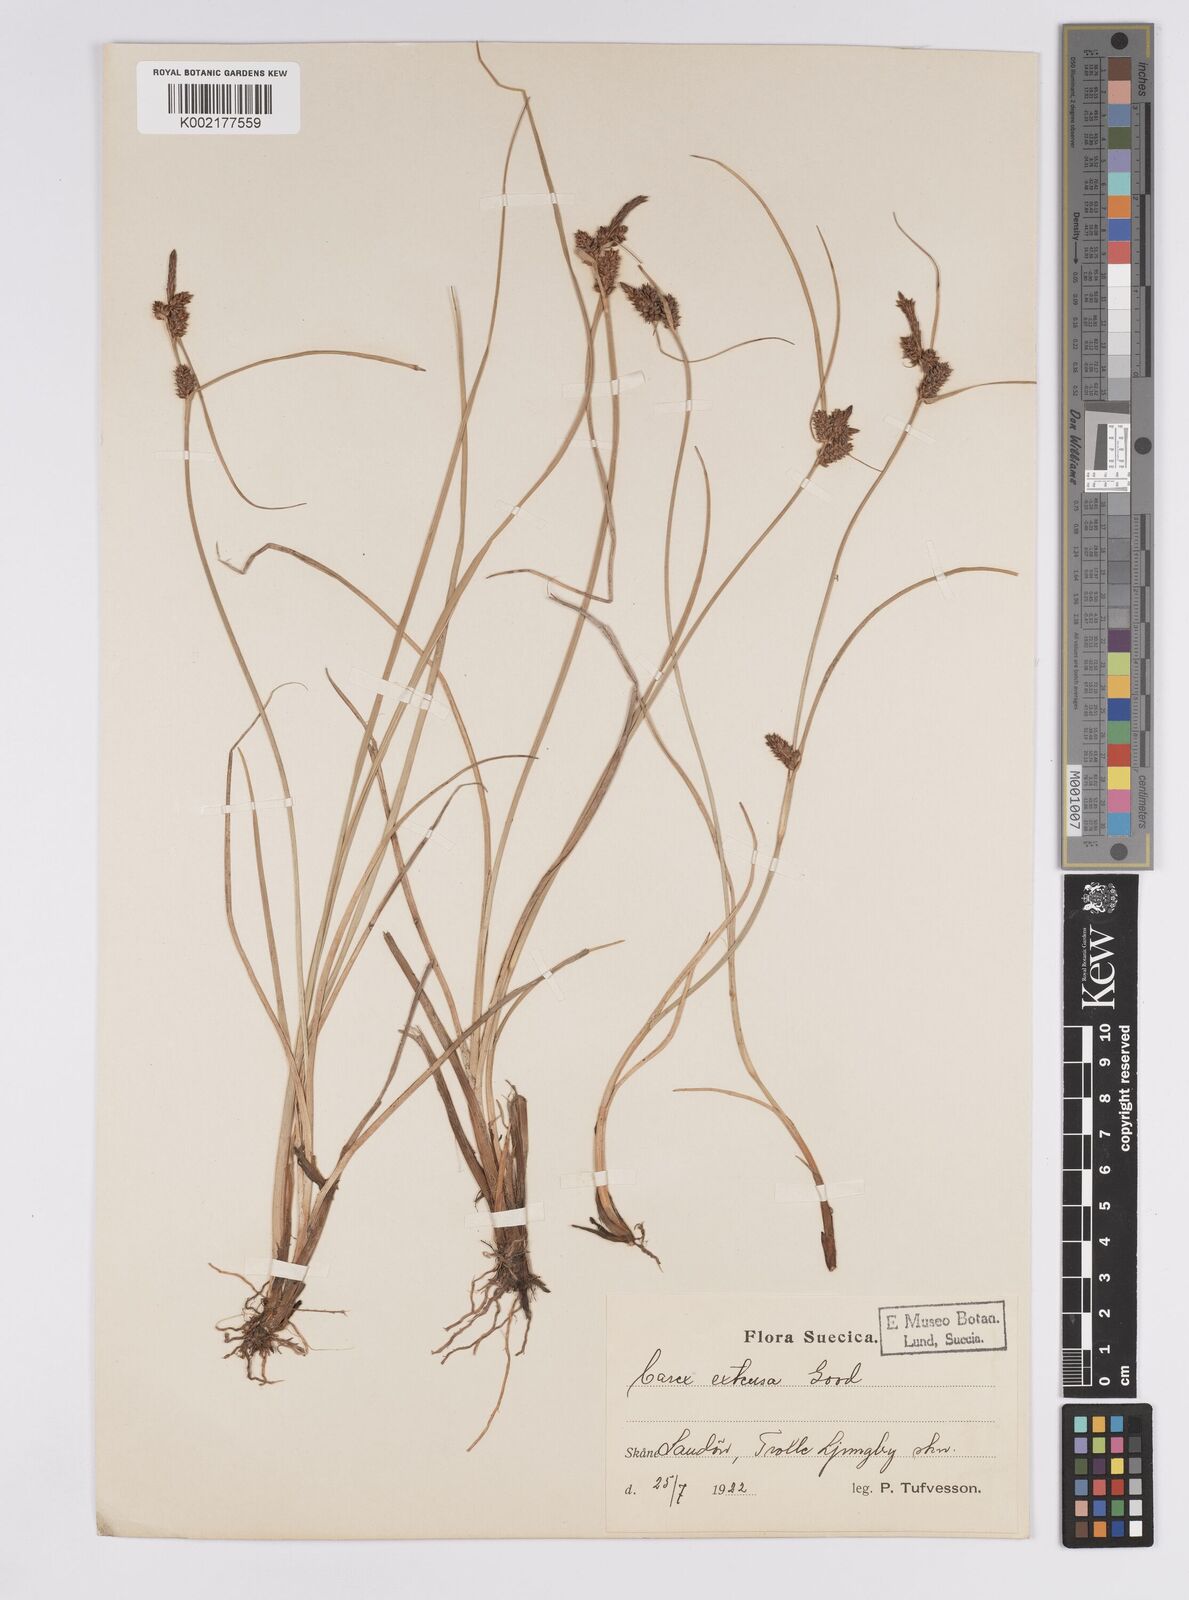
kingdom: Plantae
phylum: Tracheophyta
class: Liliopsida
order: Poales
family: Cyperaceae
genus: Carex
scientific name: Carex extensa
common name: Long-bracted sedge
